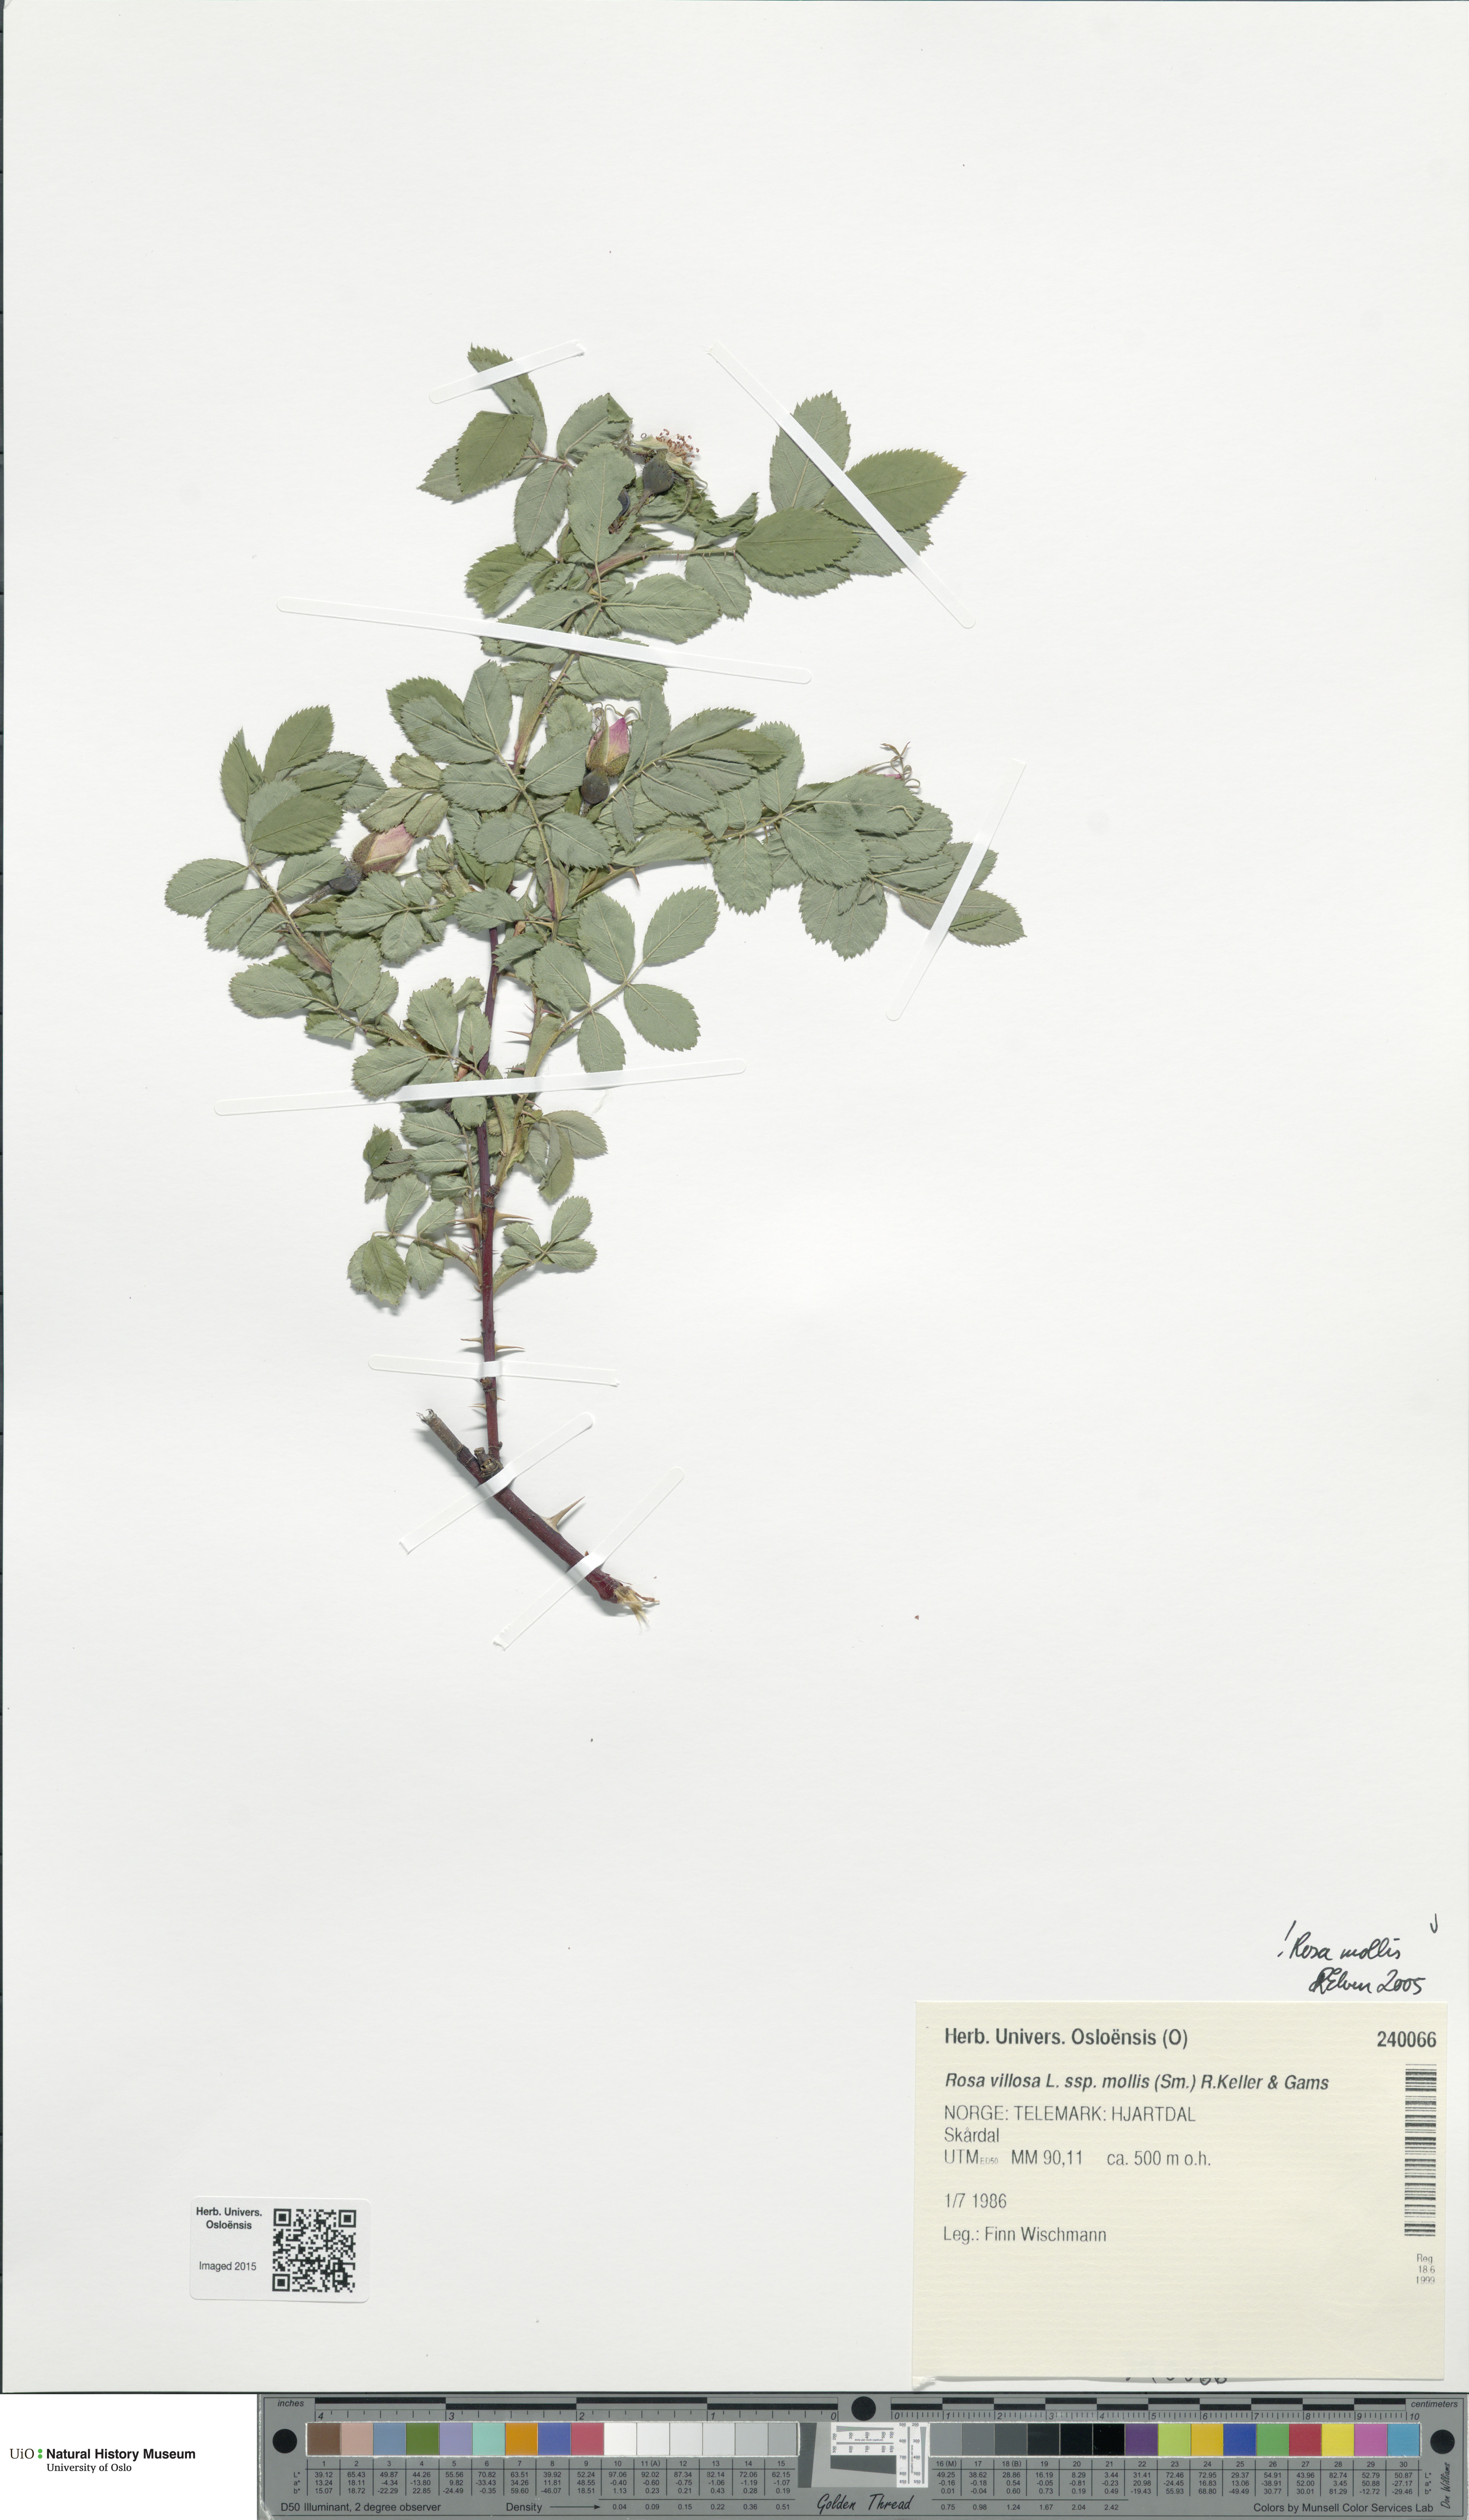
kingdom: Plantae
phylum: Tracheophyta
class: Magnoliopsida
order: Rosales
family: Rosaceae
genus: Rosa
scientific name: Rosa mollis
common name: Rose
